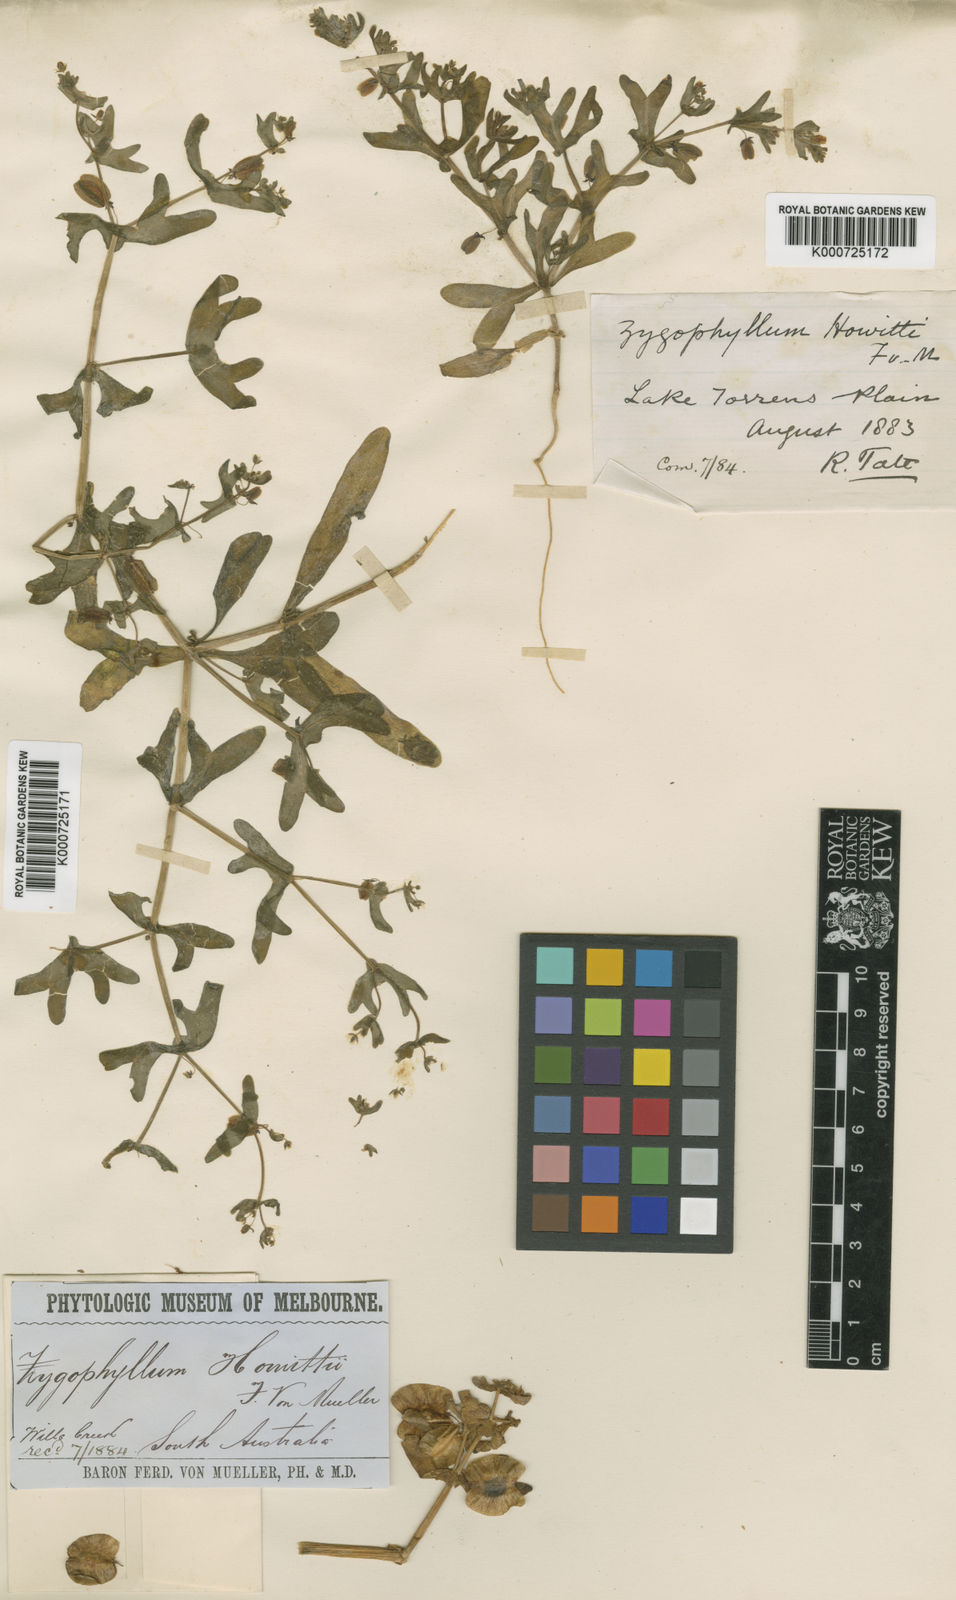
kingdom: Plantae
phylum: Tracheophyta
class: Magnoliopsida
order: Zygophyllales
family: Zygophyllaceae
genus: Roepera
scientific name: Roepera howittii
